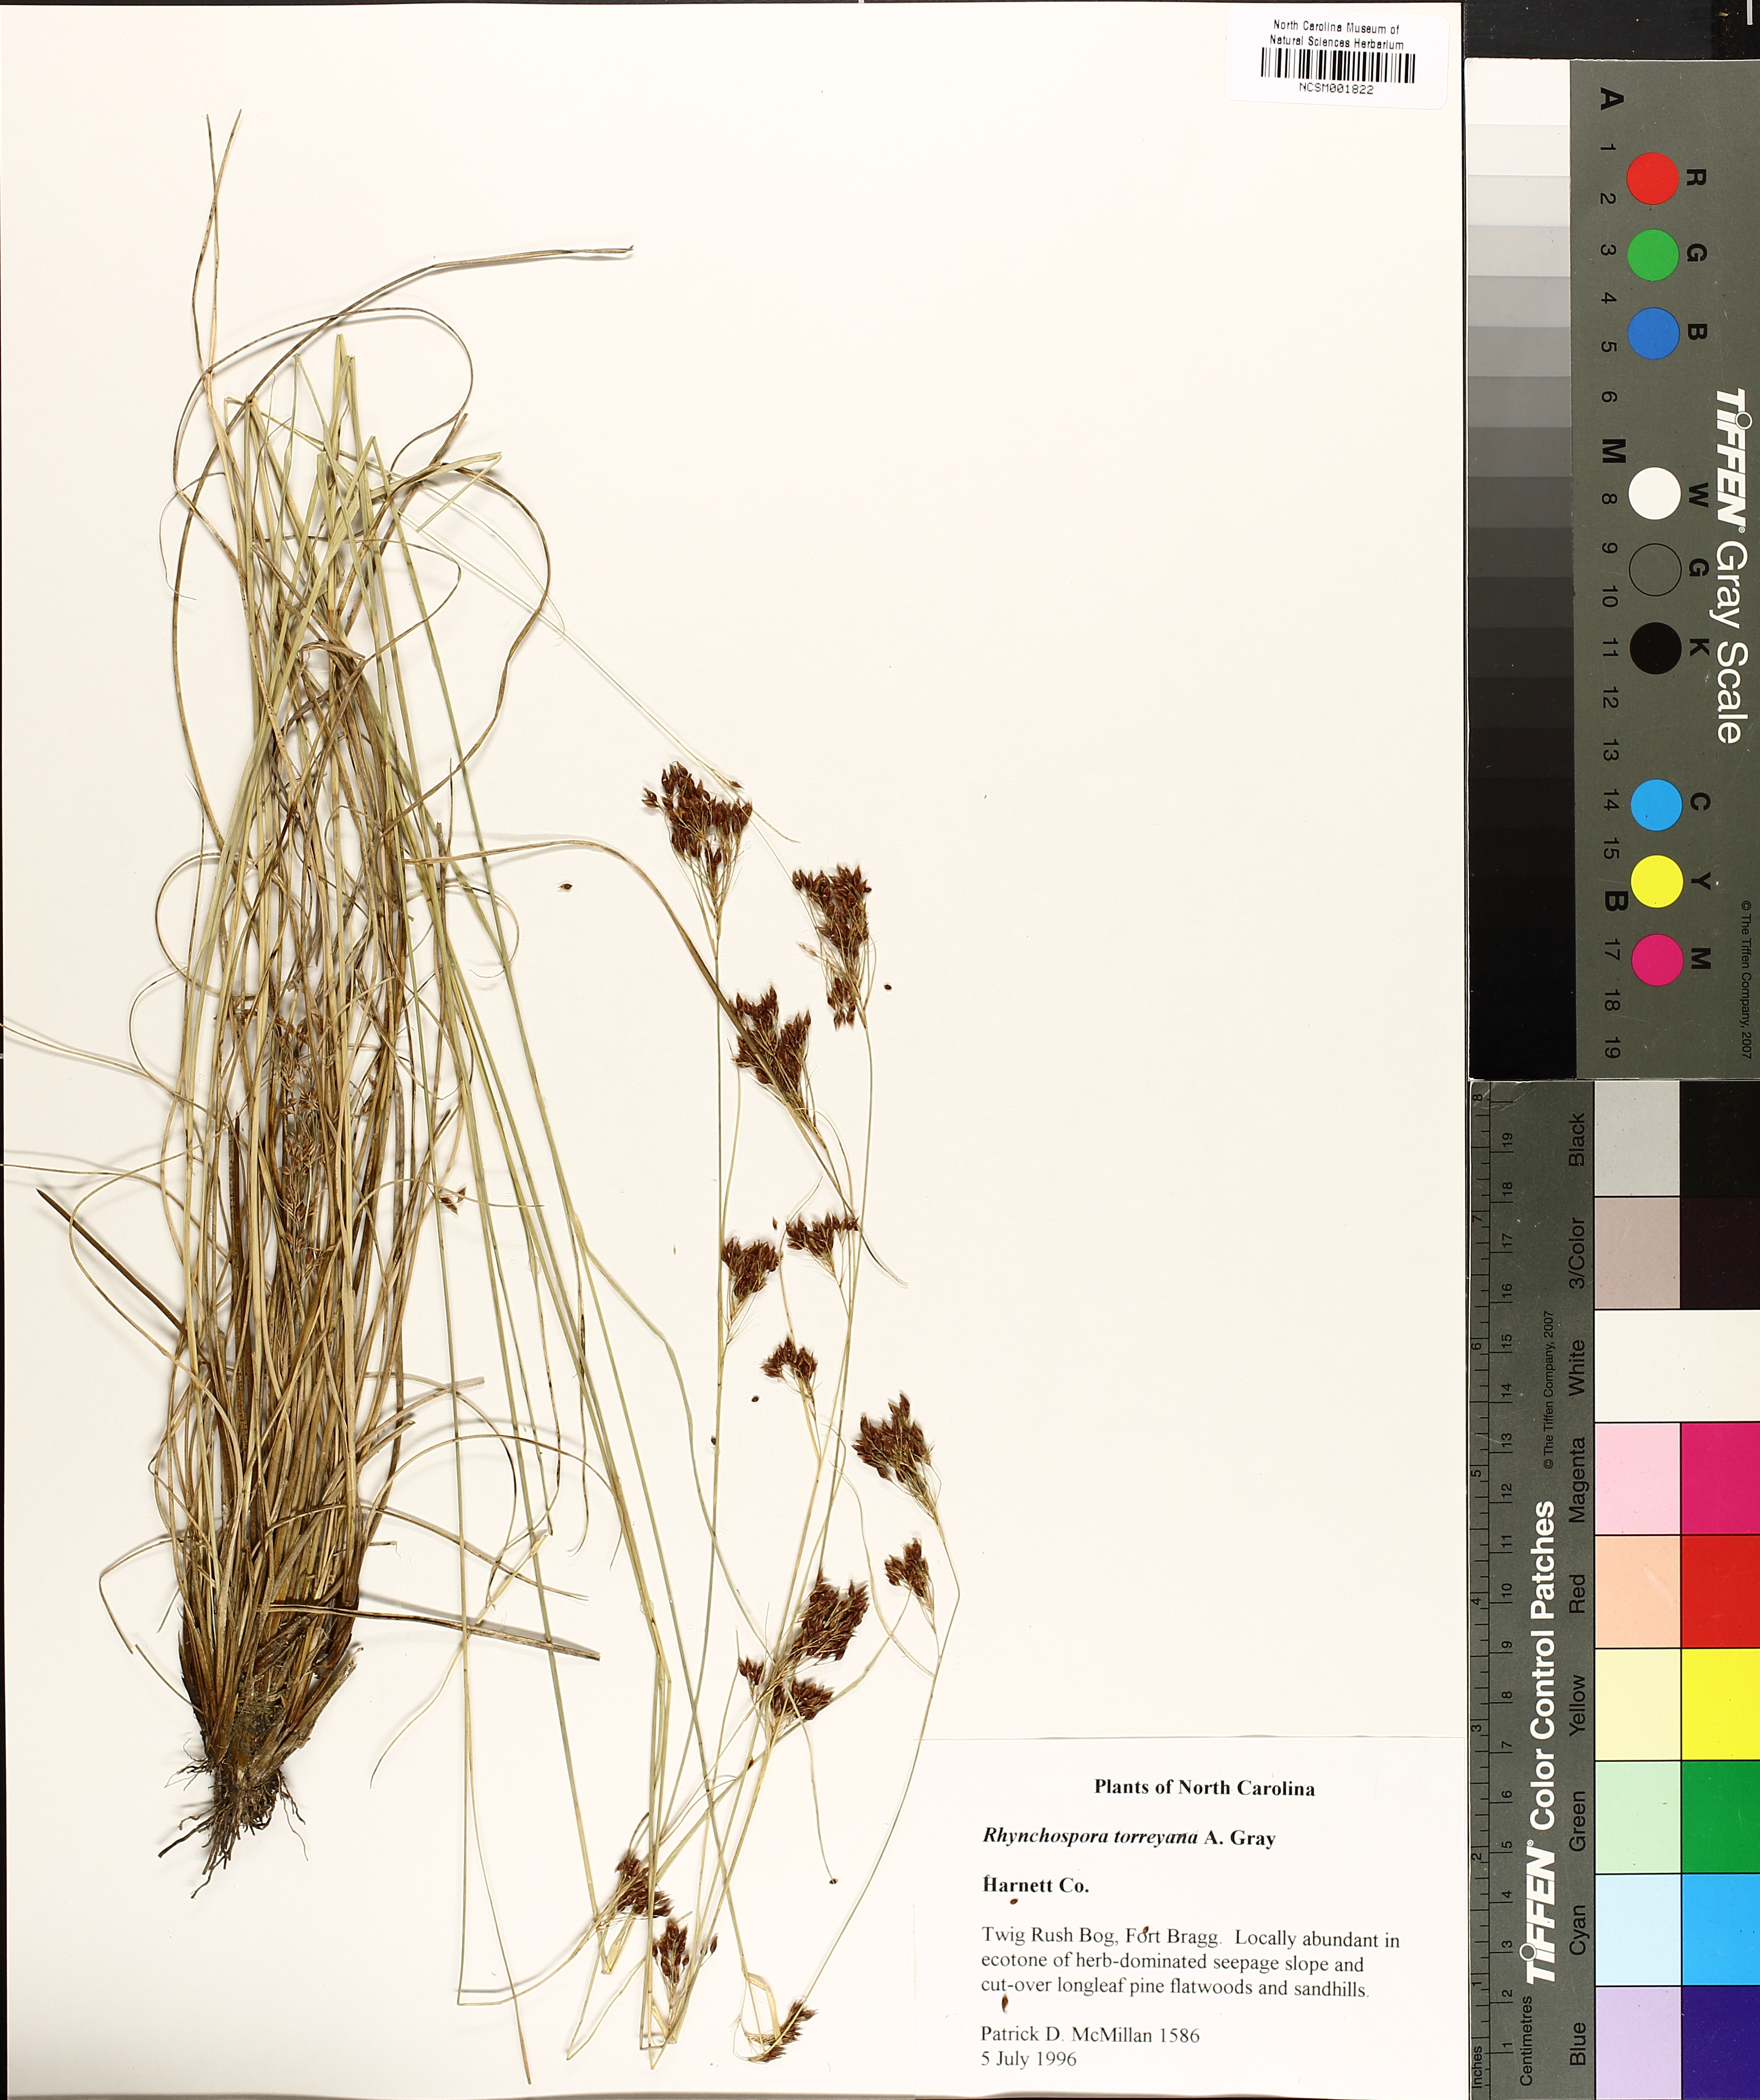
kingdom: Plantae
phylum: Tracheophyta
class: Liliopsida
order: Poales
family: Cyperaceae
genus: Rhynchospora
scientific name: Rhynchospora torreyana
